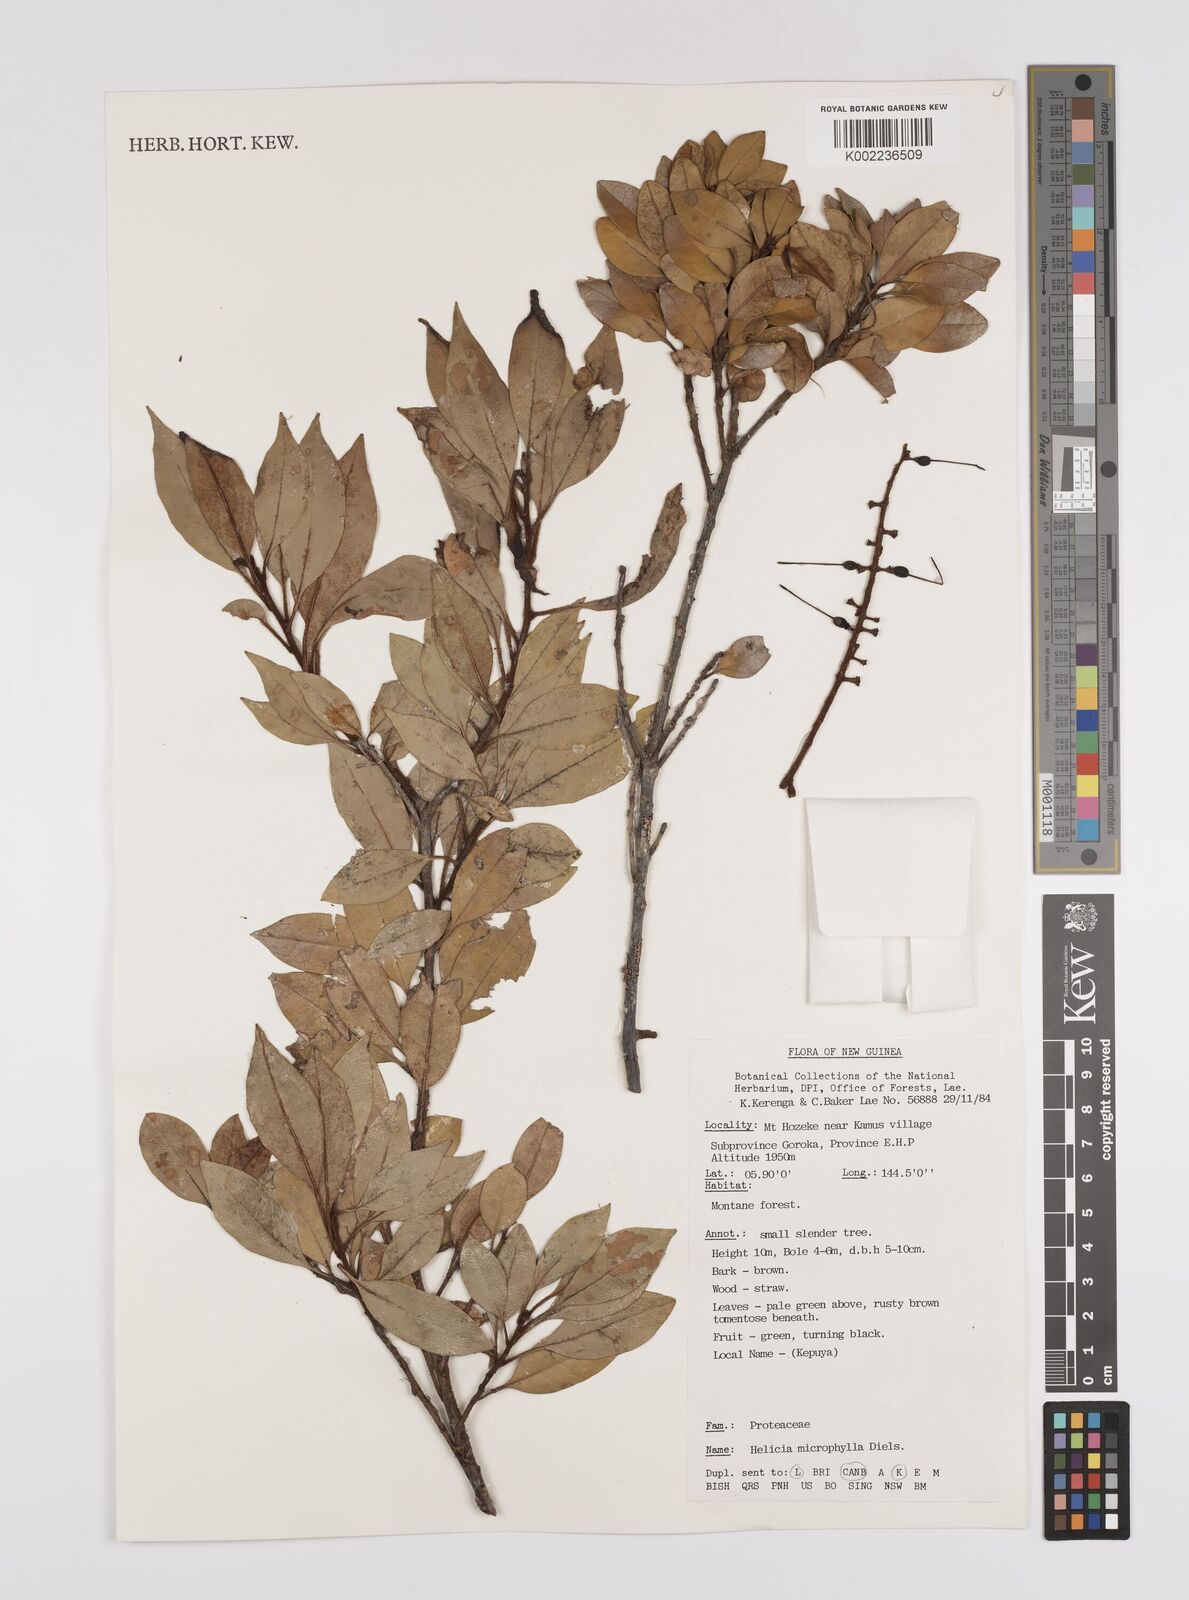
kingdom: Plantae
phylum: Tracheophyta
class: Magnoliopsida
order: Proteales
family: Proteaceae
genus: Helicia
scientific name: Helicia microphylla
